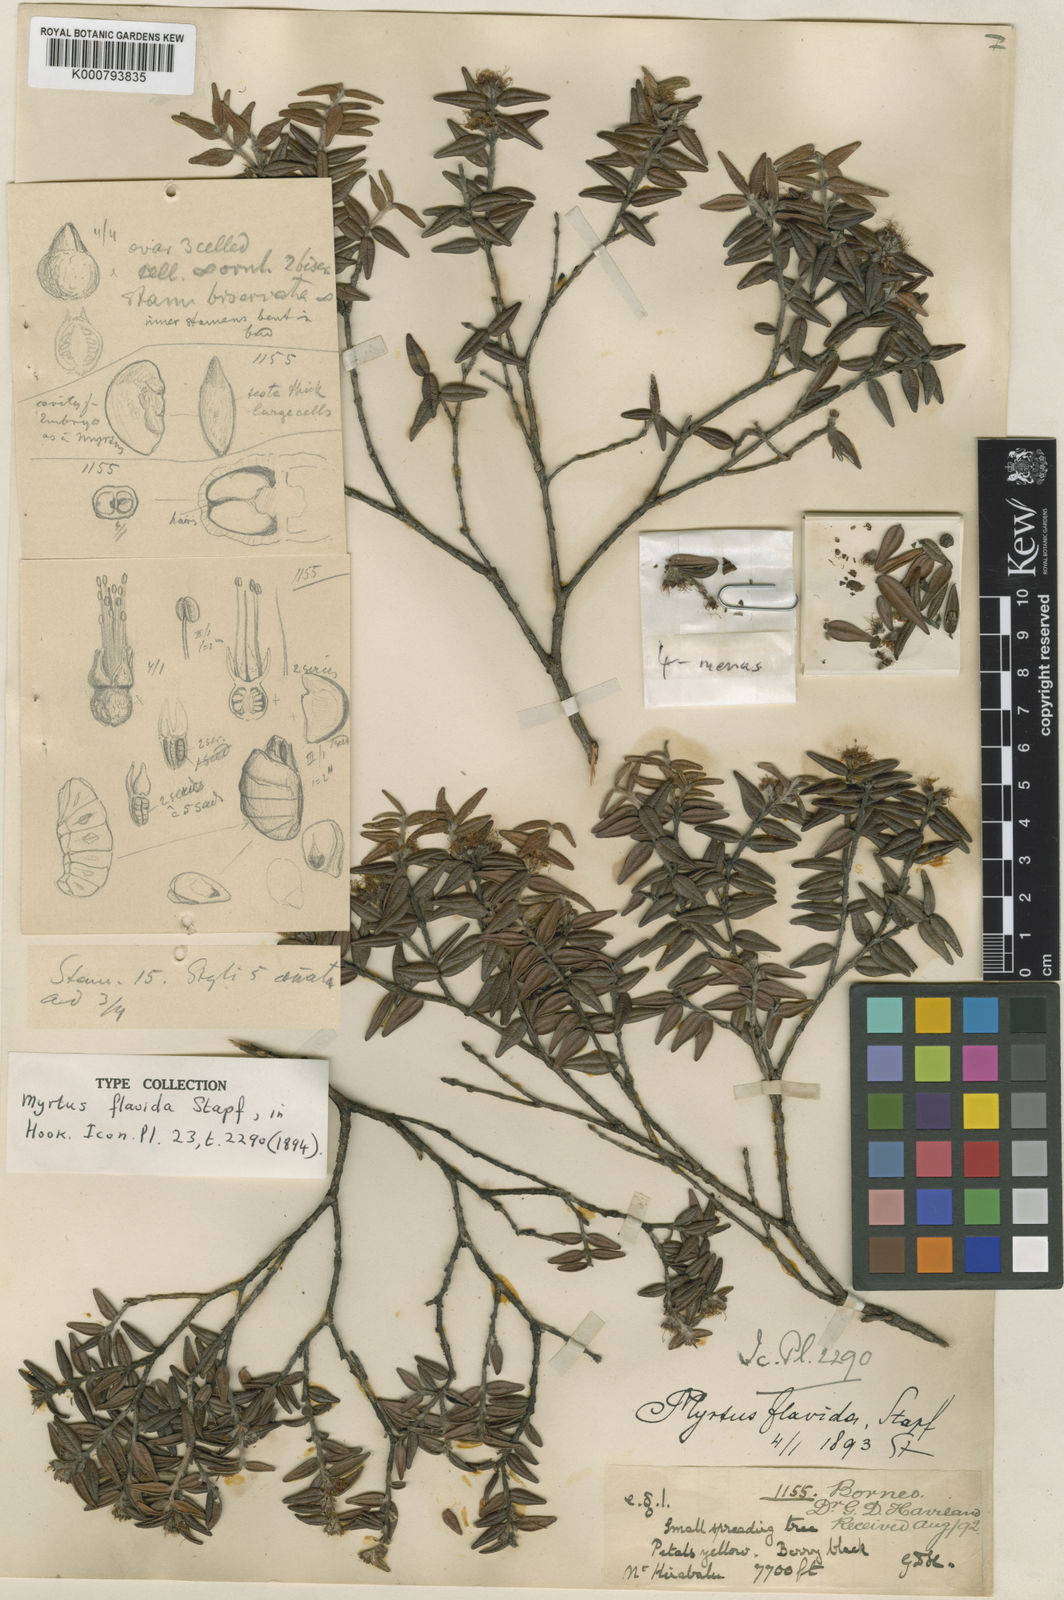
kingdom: Plantae
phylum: Tracheophyta
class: Magnoliopsida
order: Myrtales
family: Myrtaceae
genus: Xanthomyrtus
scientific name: Xanthomyrtus flavida
